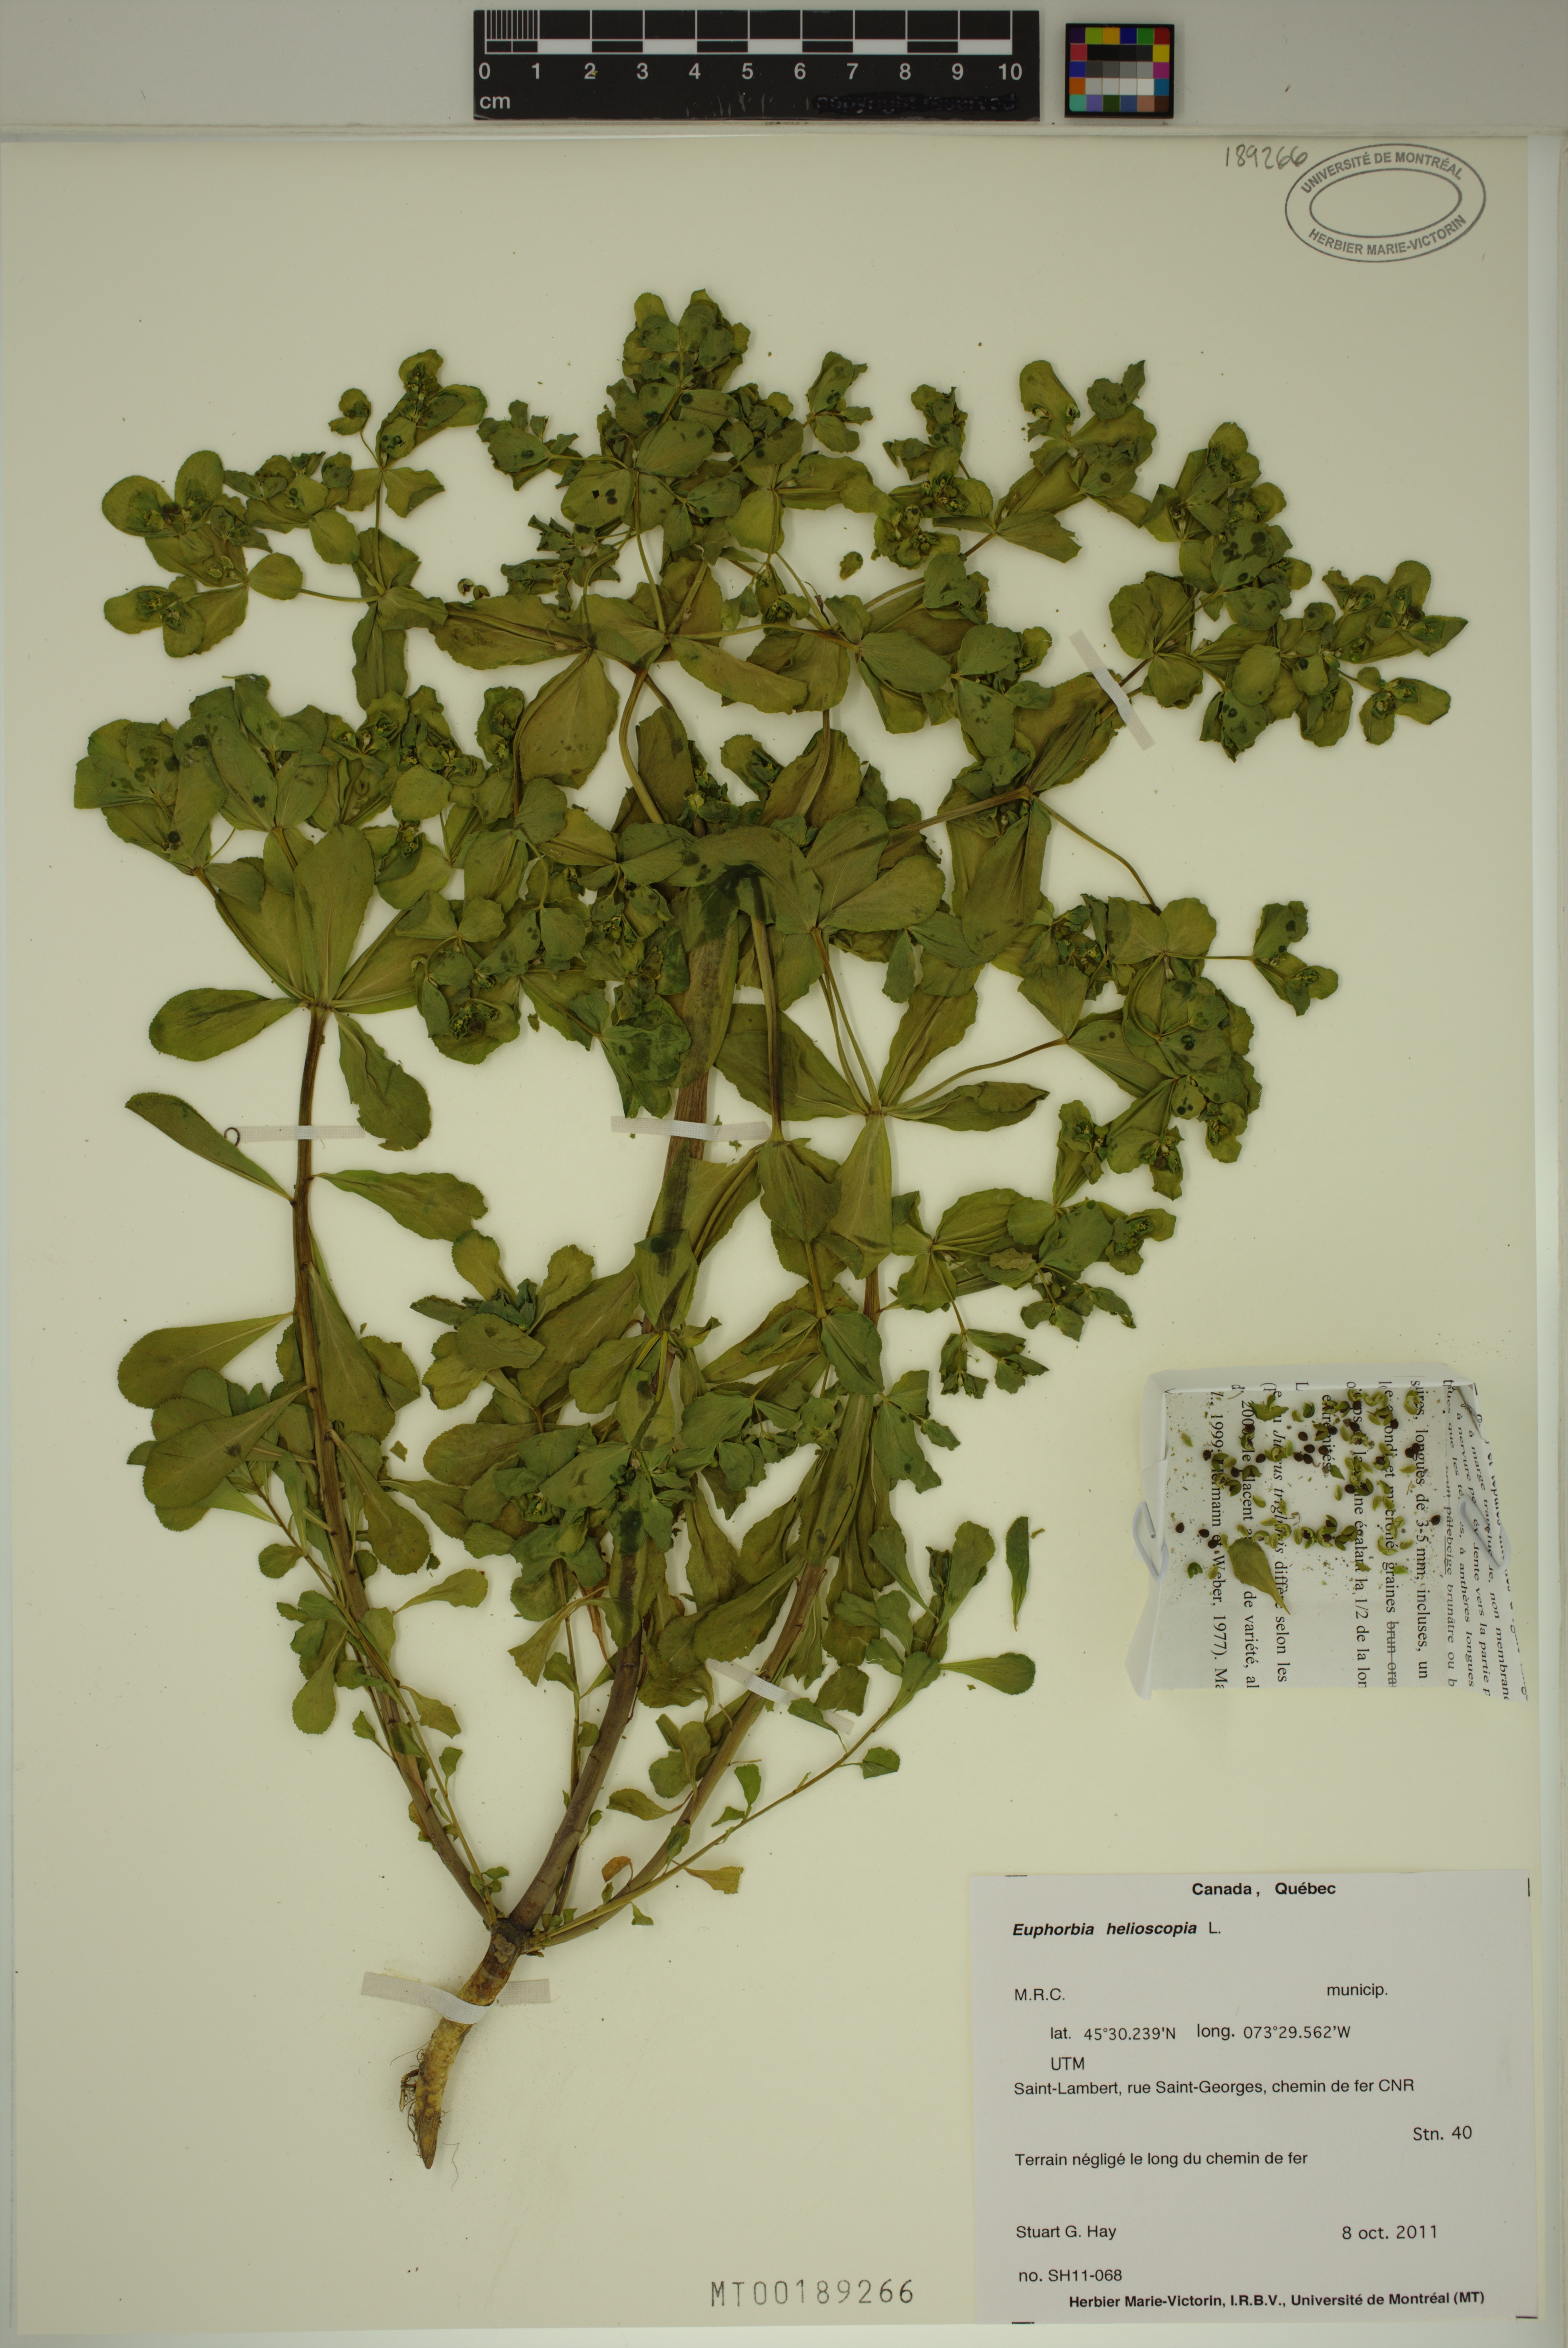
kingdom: Plantae
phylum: Tracheophyta
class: Magnoliopsida
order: Malpighiales
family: Euphorbiaceae
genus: Euphorbia
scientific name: Euphorbia helioscopia
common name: Sun spurge
